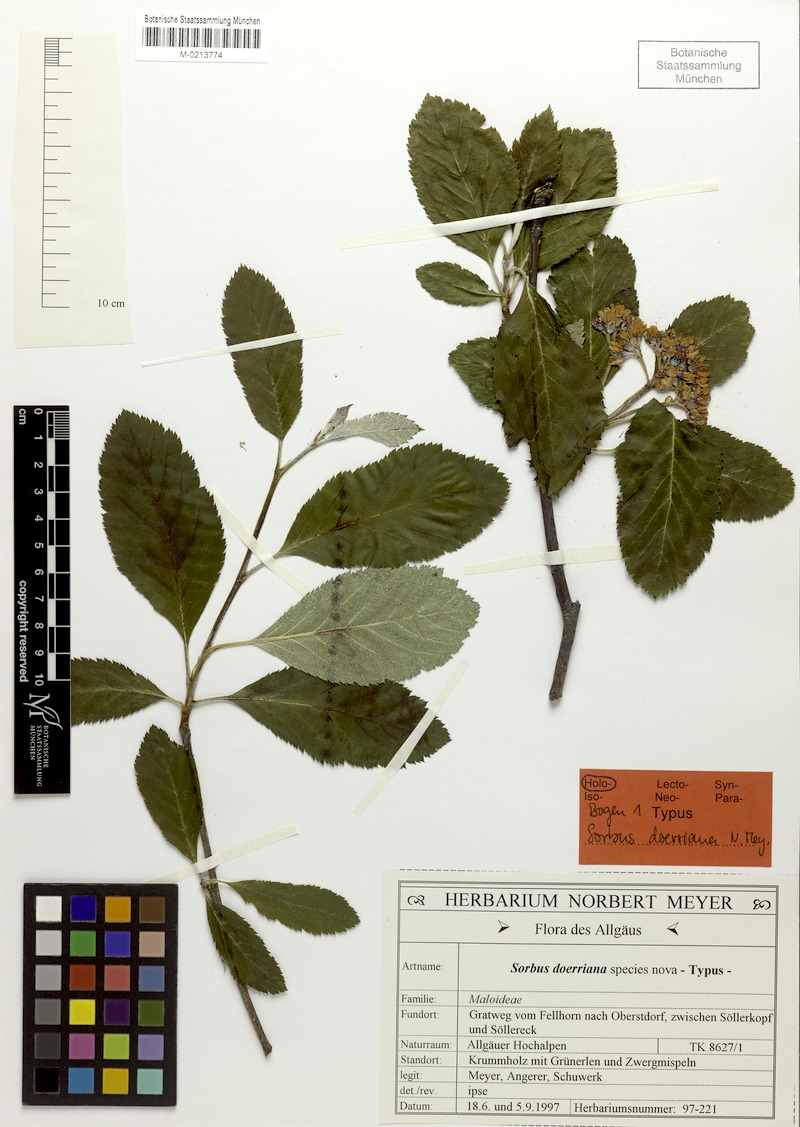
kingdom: Plantae
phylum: Tracheophyta
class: Magnoliopsida
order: Rosales
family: Rosaceae
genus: Normeyera
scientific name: Normeyera doerriana
